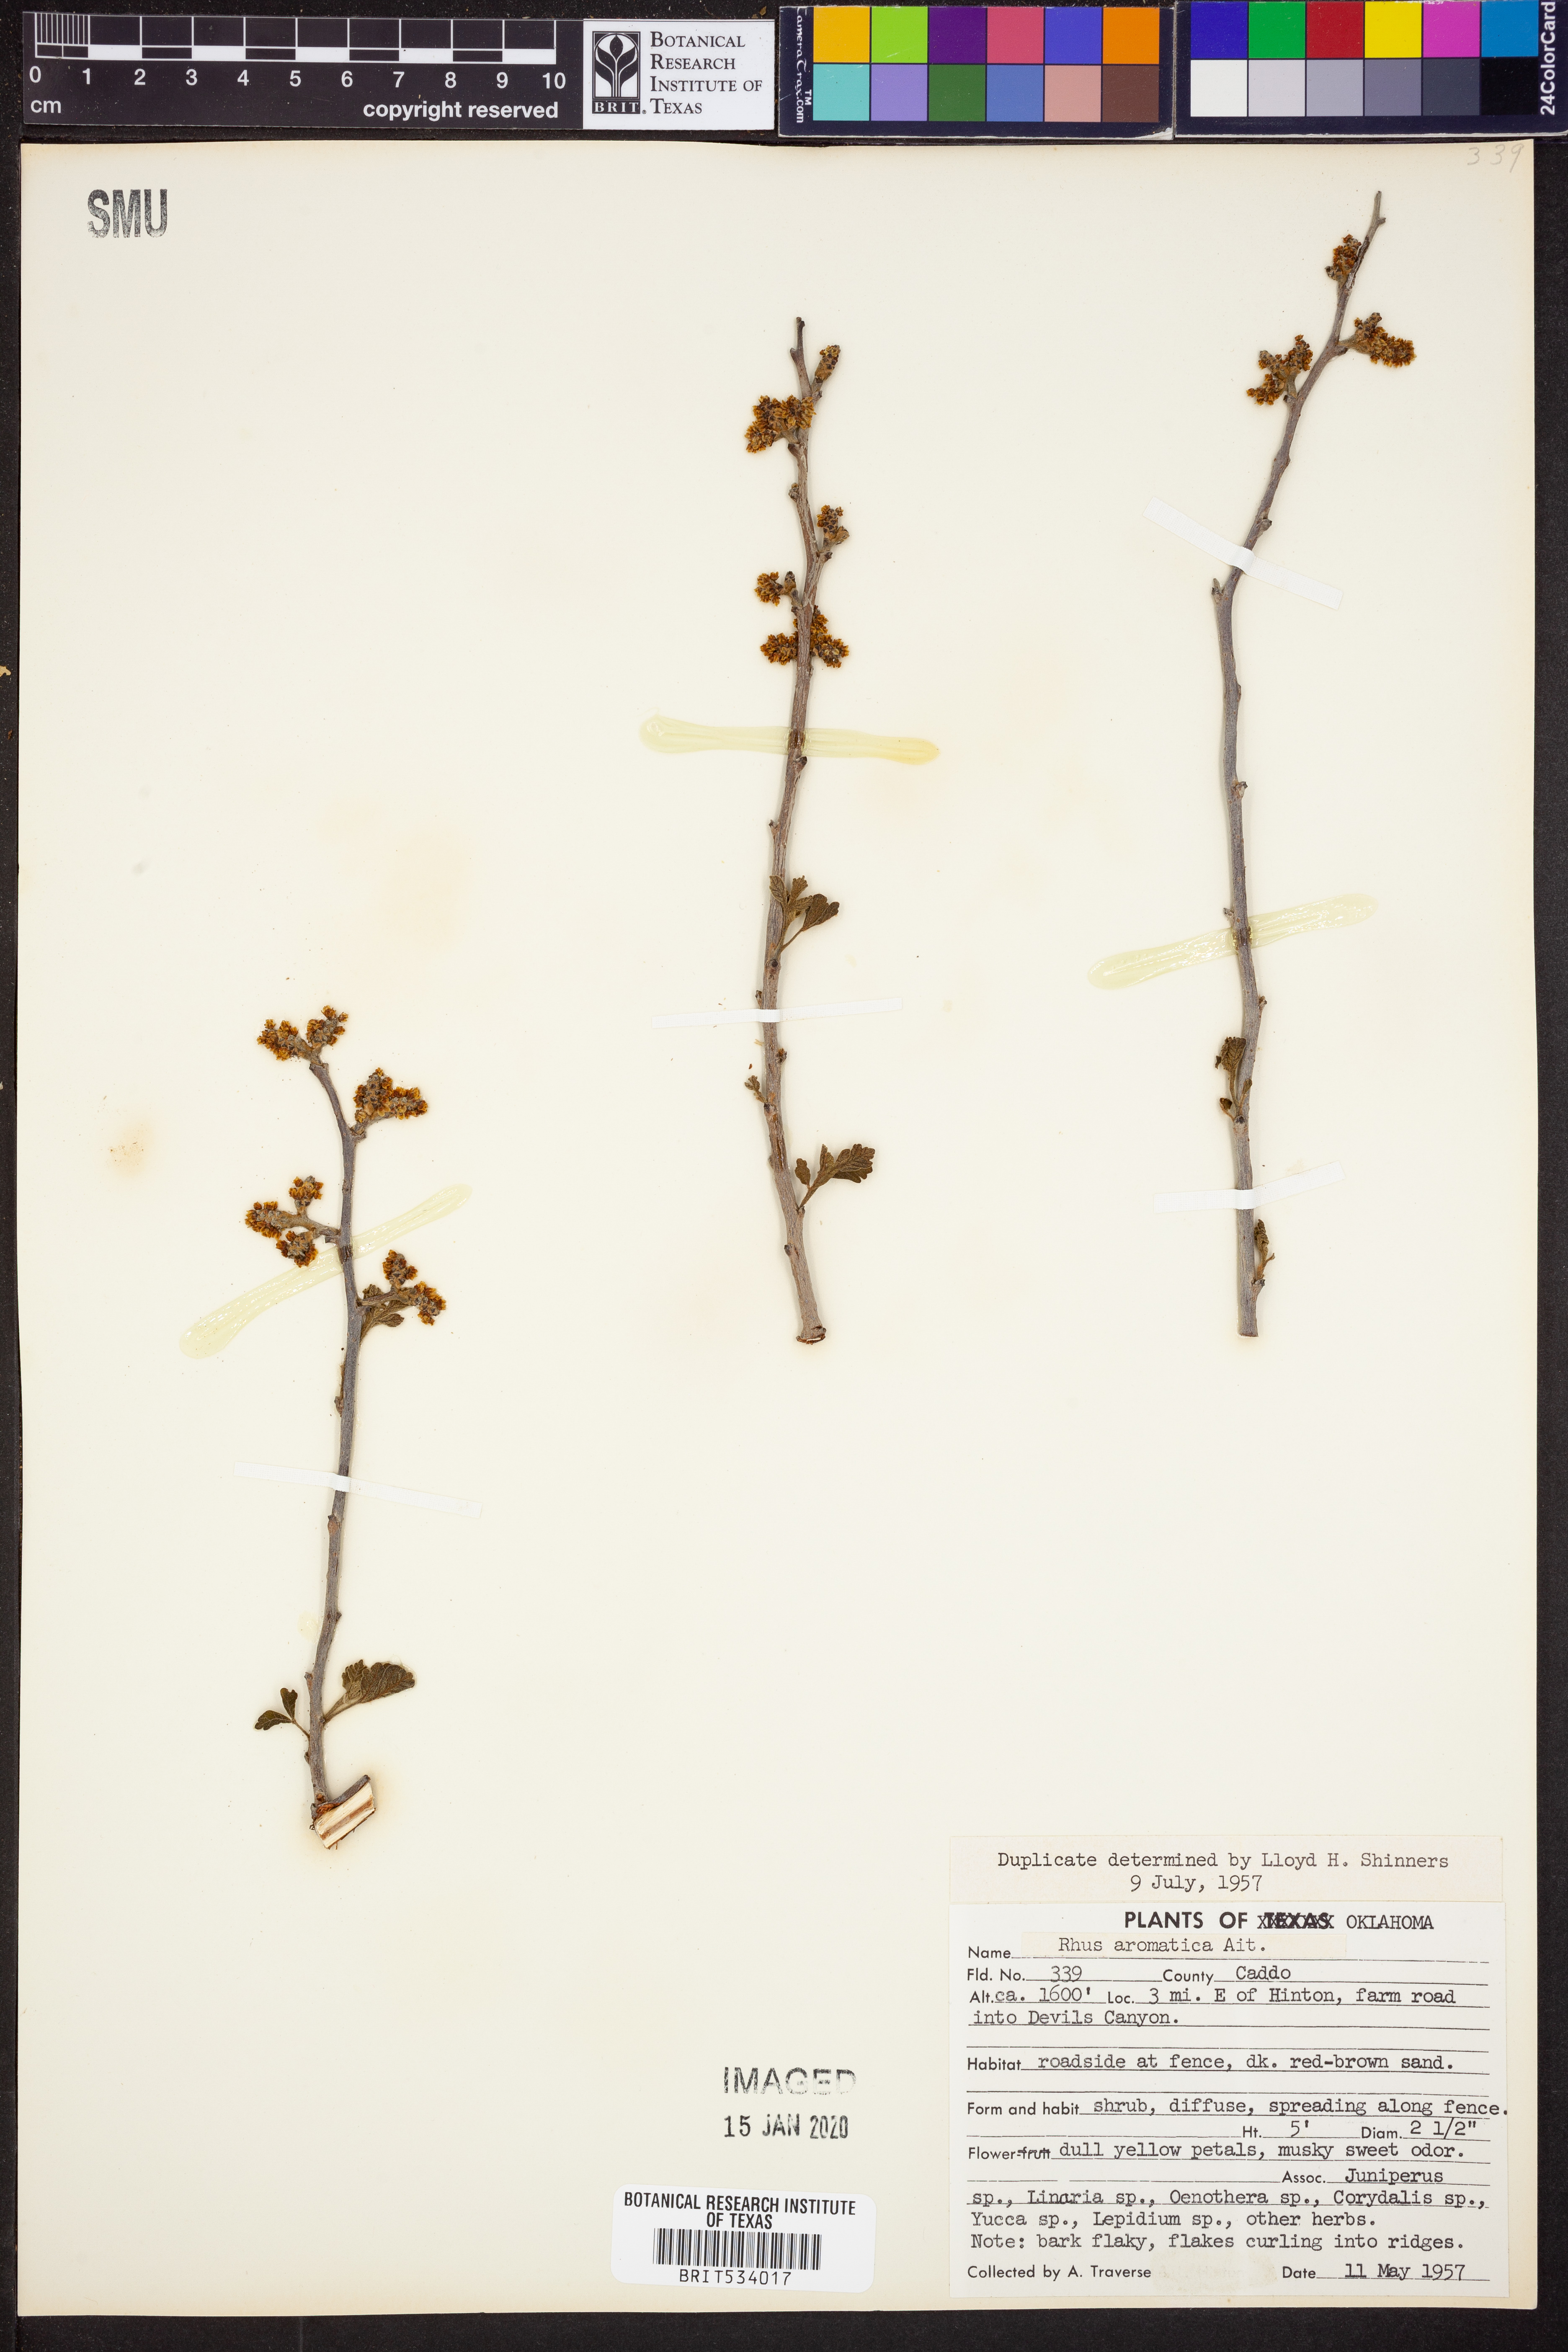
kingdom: Plantae
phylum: Tracheophyta
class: Magnoliopsida
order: Sapindales
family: Anacardiaceae
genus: Rhus
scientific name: Rhus aromatica
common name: Aromatic sumac
